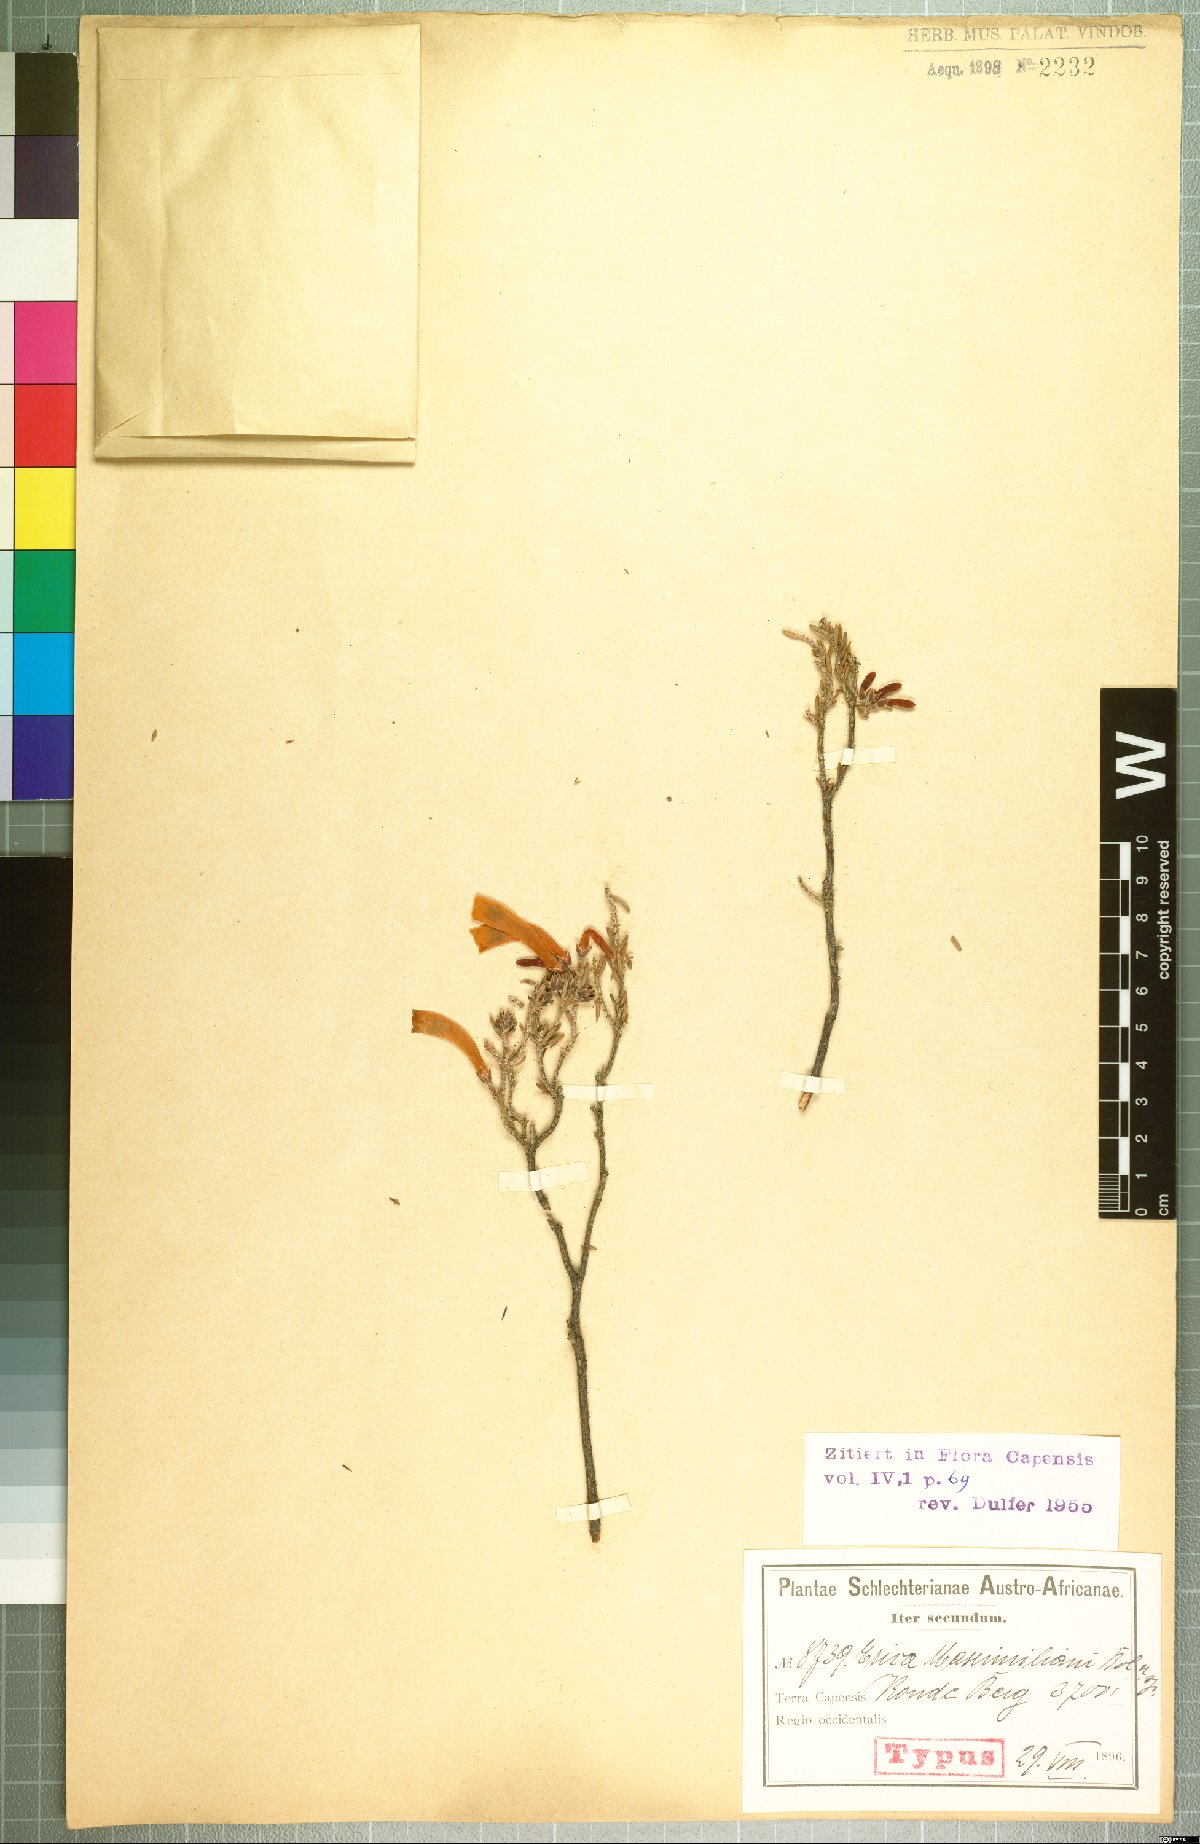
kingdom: Plantae
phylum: Tracheophyta
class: Magnoliopsida
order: Ericales
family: Ericaceae
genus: Erica
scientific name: Erica maximiliani
